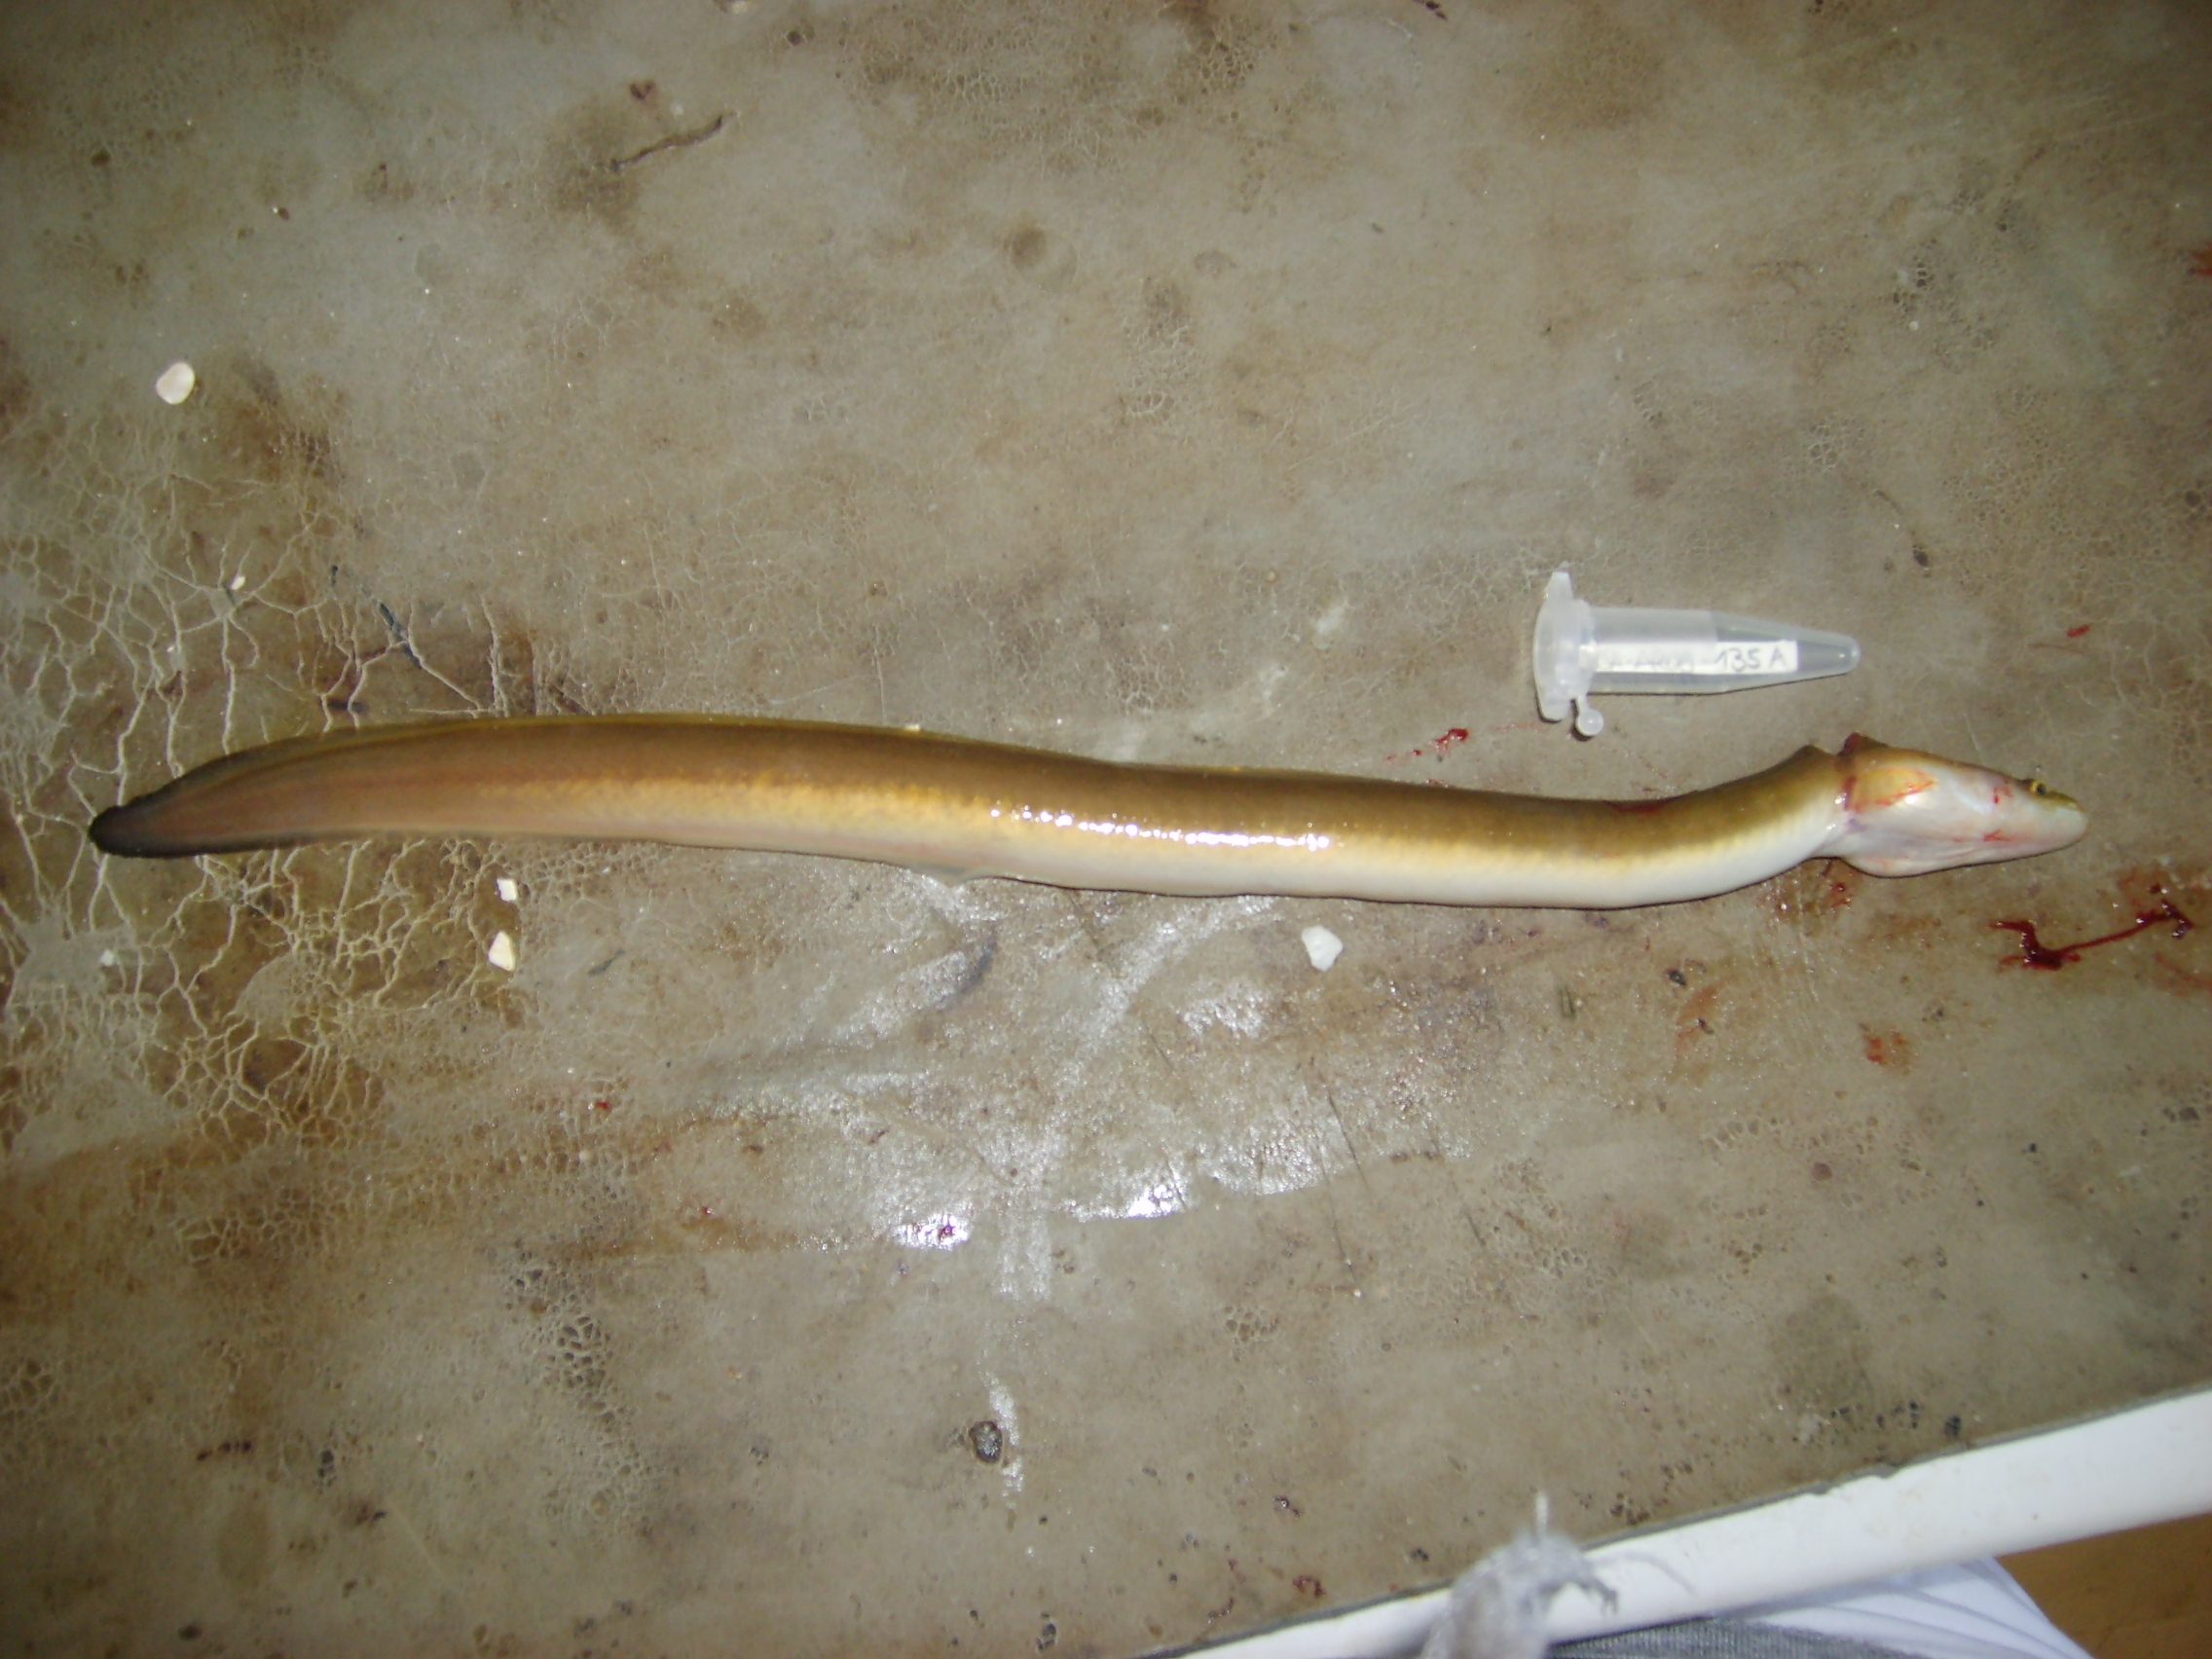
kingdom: Animalia
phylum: Chordata
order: Anguilliformes
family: Anguillidae
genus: Anguilla
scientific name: Anguilla mossambica
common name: African longfin eel
